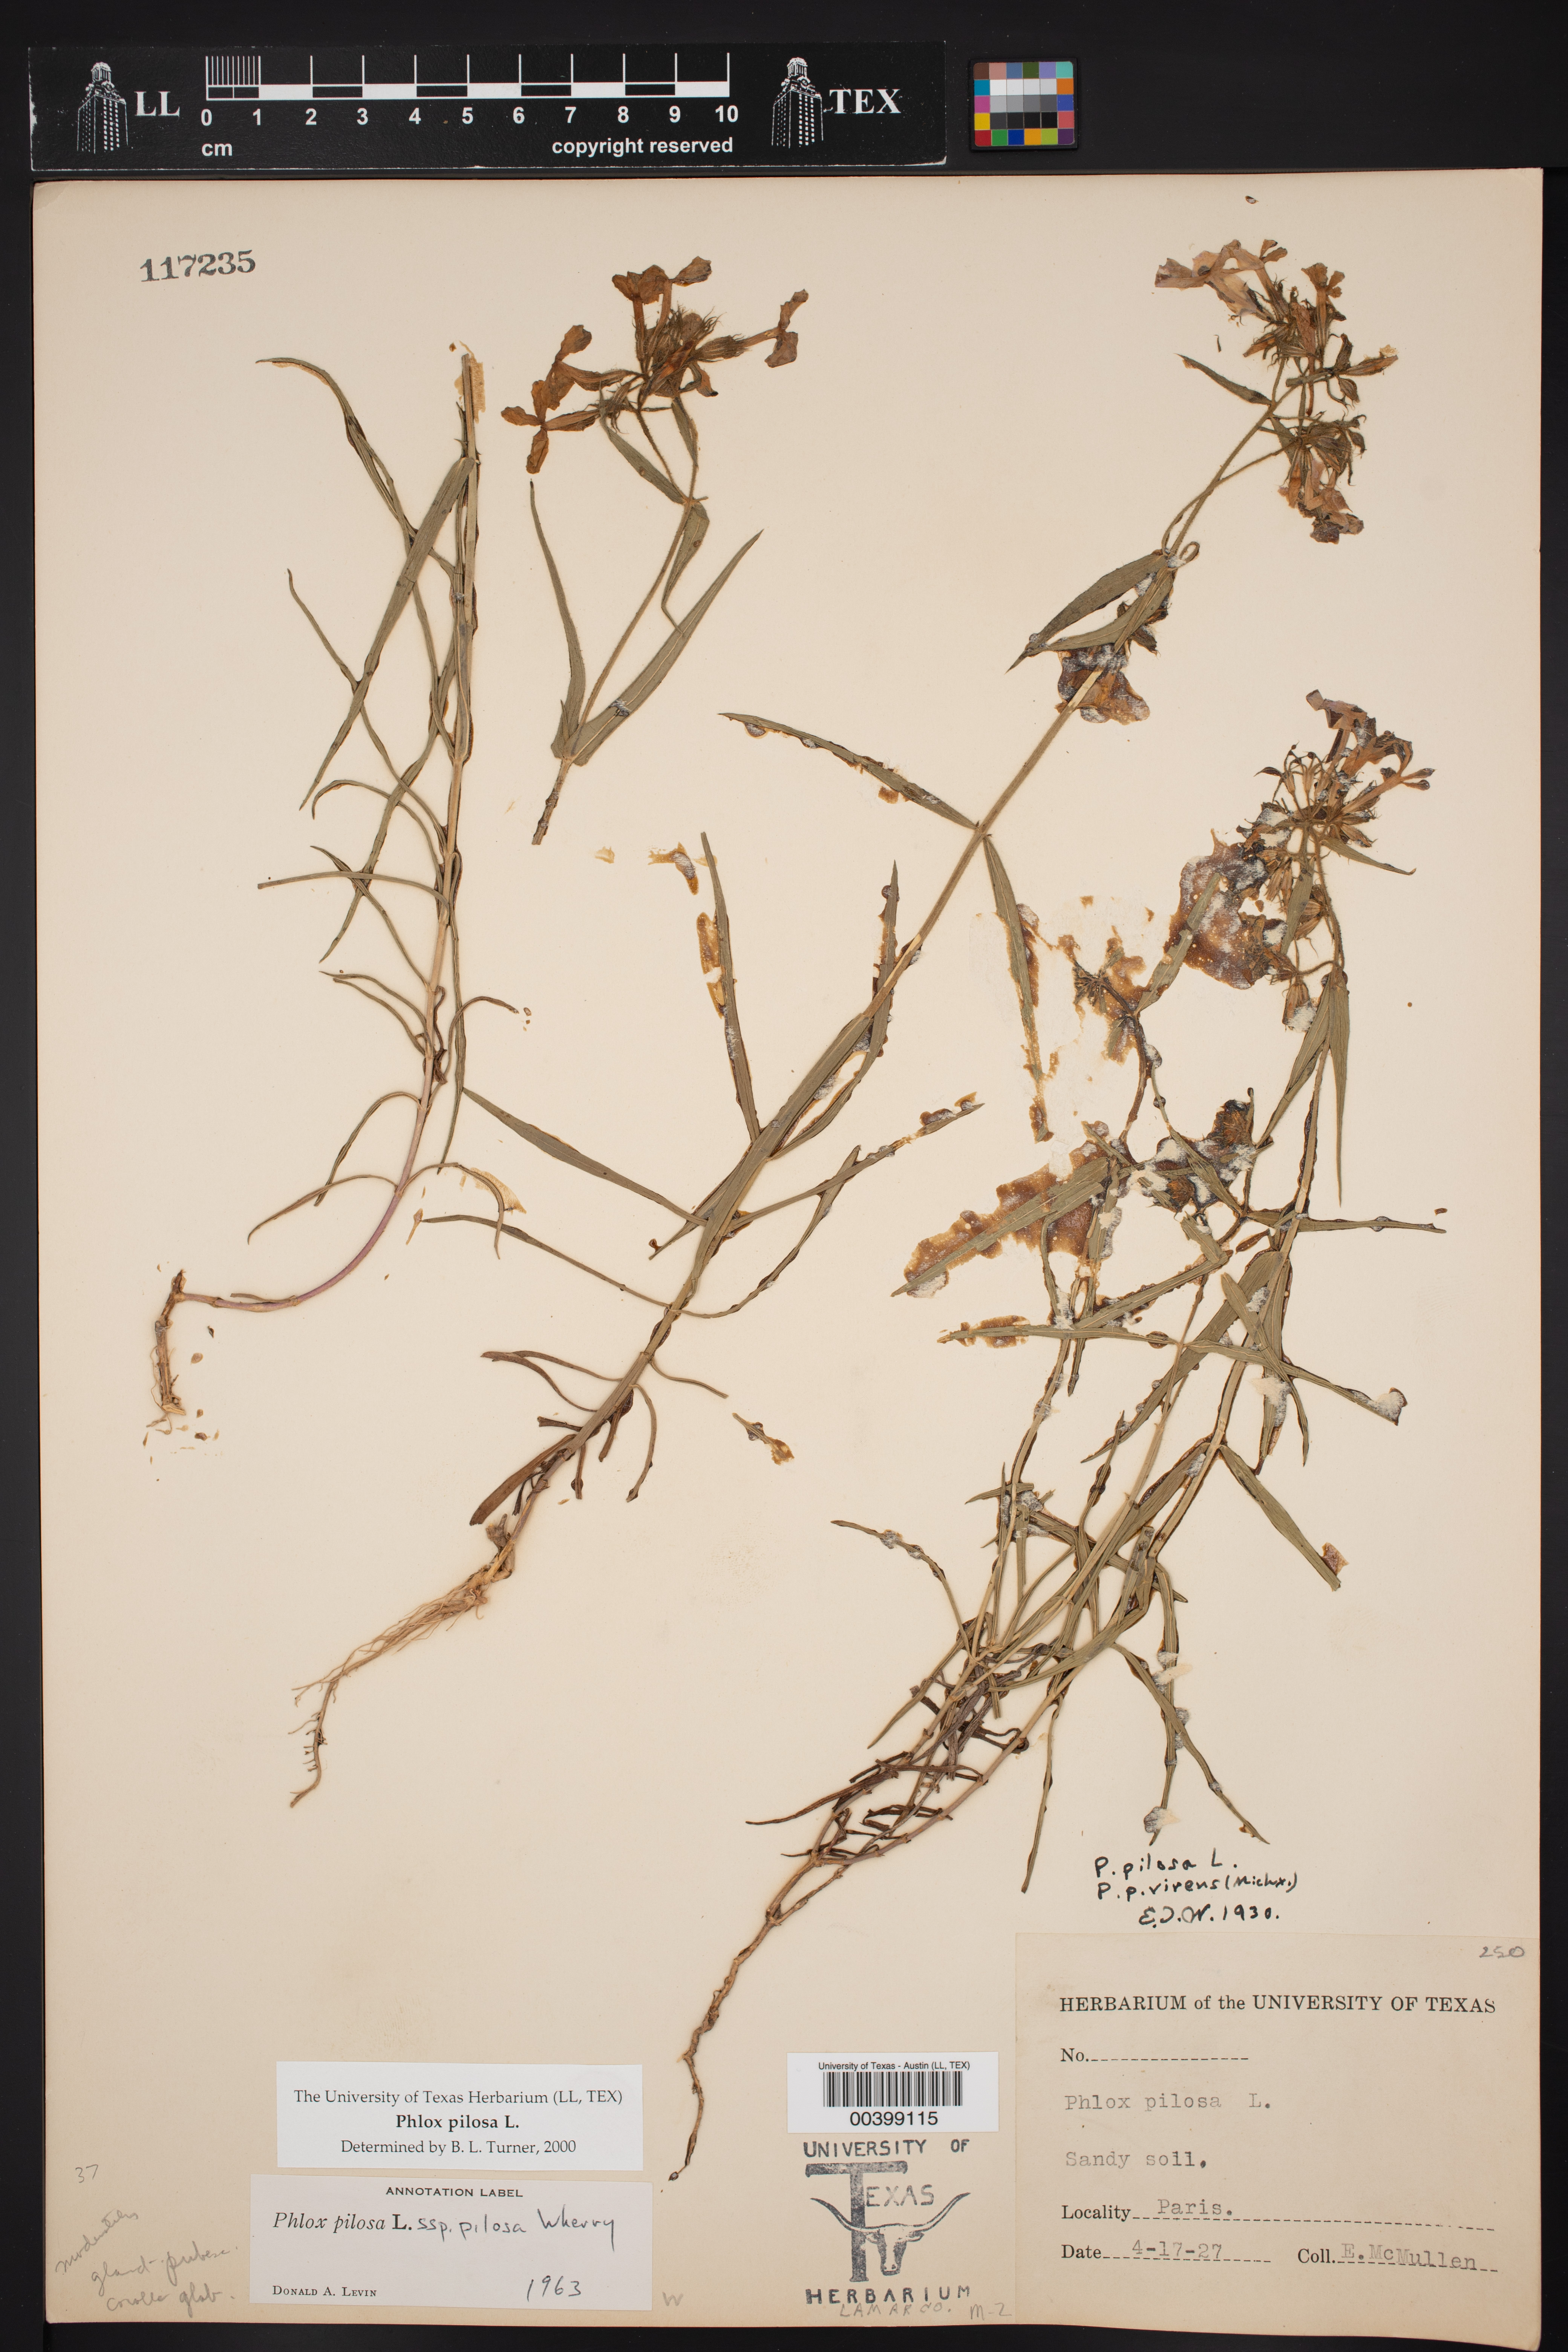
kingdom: Plantae
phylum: Tracheophyta
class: Magnoliopsida
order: Ericales
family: Polemoniaceae
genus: Phlox
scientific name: Phlox pilosa
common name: Prairie phlox
